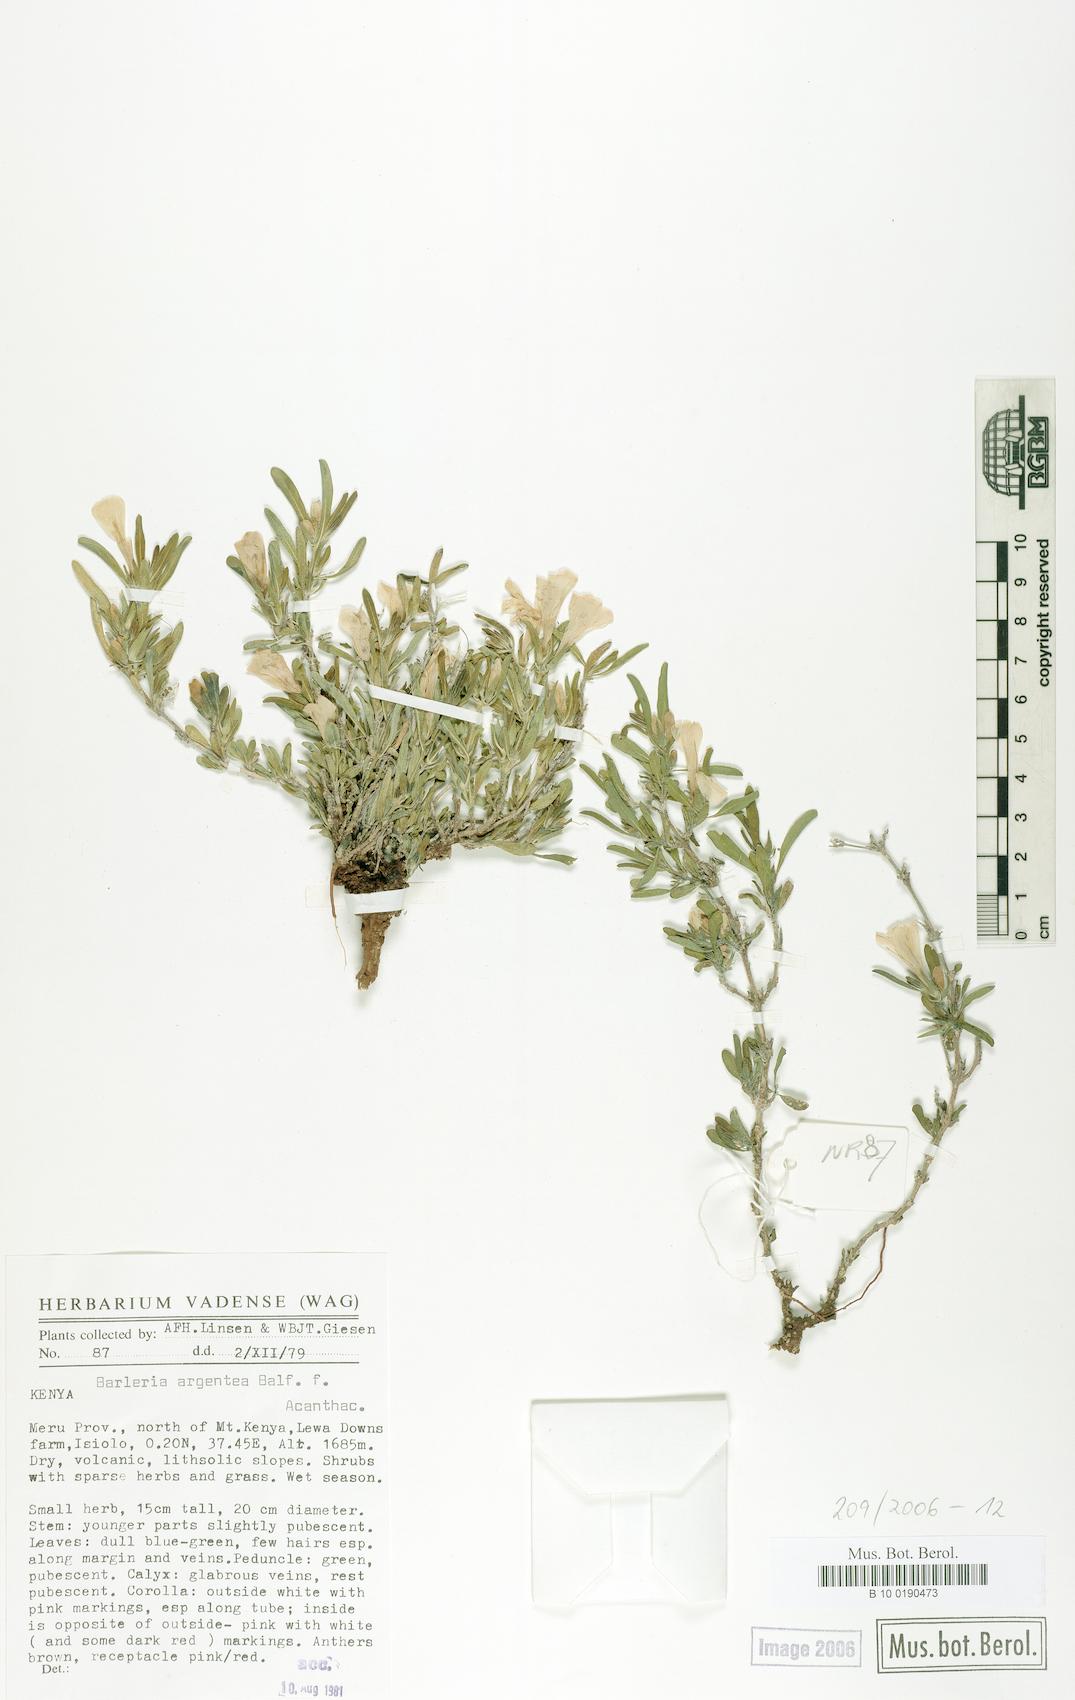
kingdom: Plantae
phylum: Tracheophyta
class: Magnoliopsida
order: Lamiales
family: Acanthaceae
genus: Barleria
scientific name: Barleria argentea
